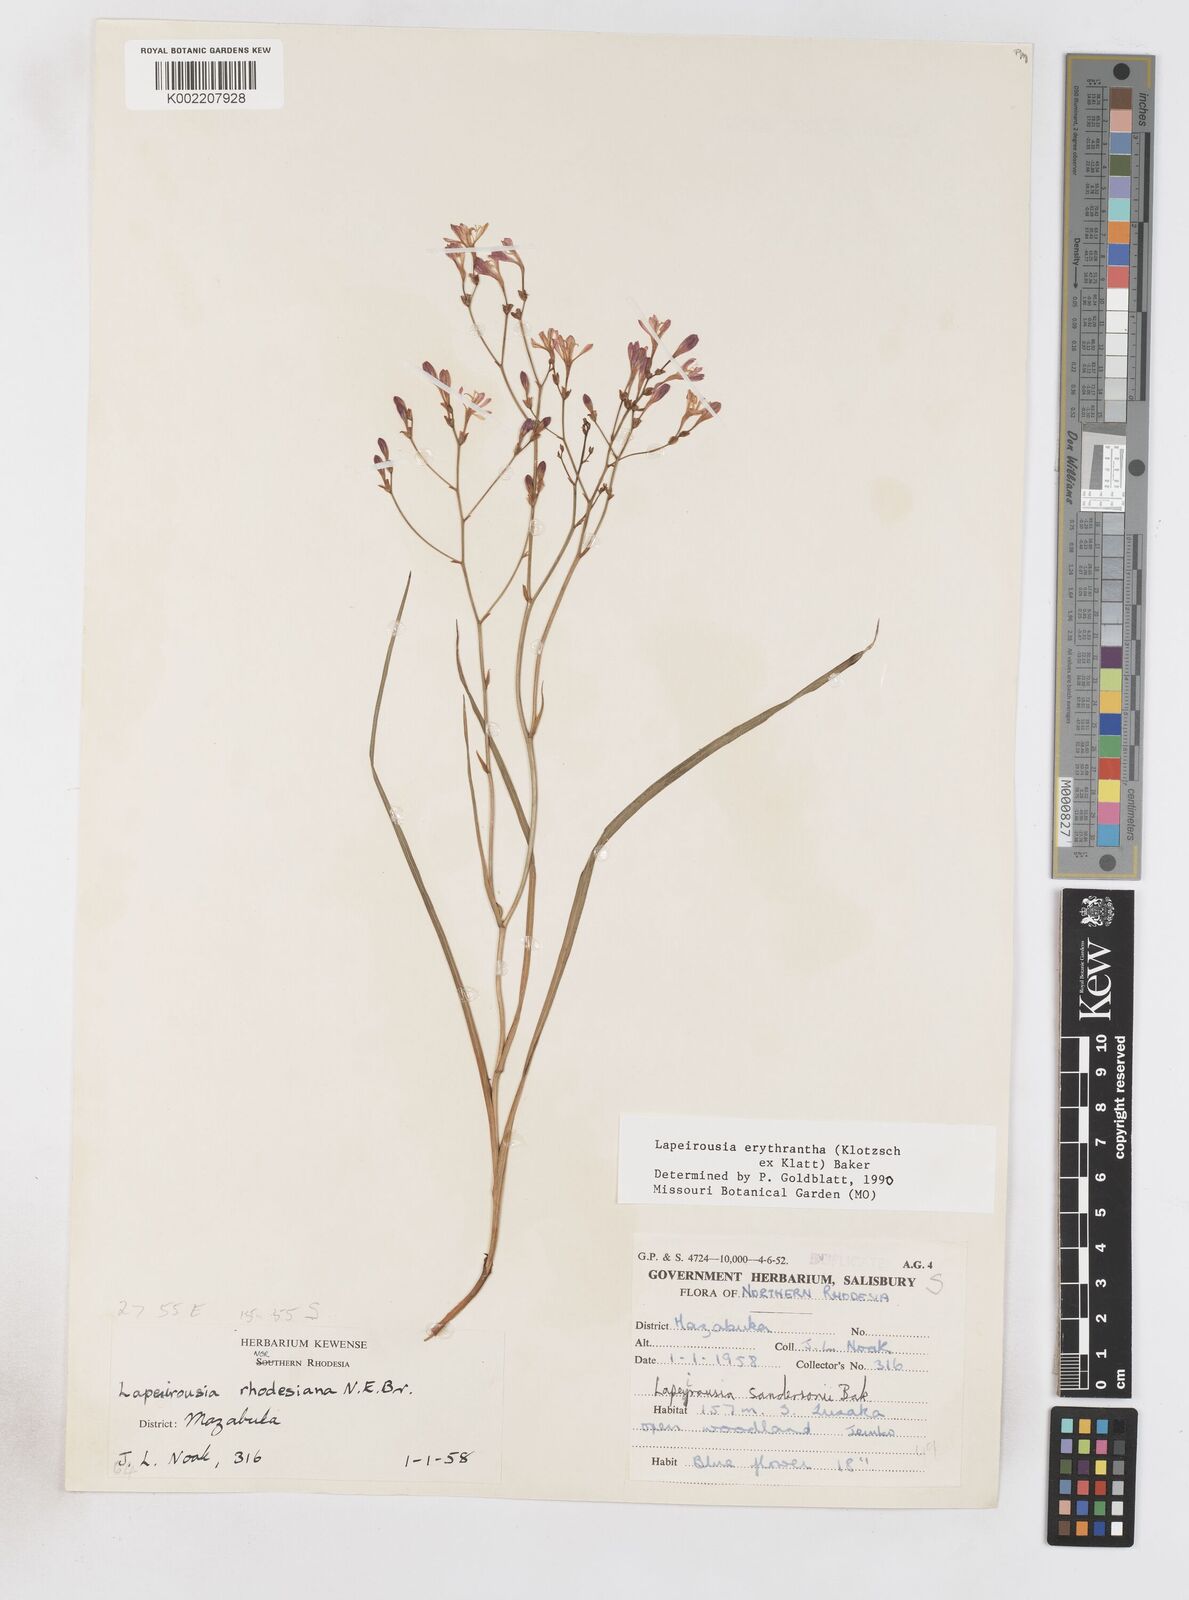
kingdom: Plantae
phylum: Tracheophyta
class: Liliopsida
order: Asparagales
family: Iridaceae
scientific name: Iridaceae
